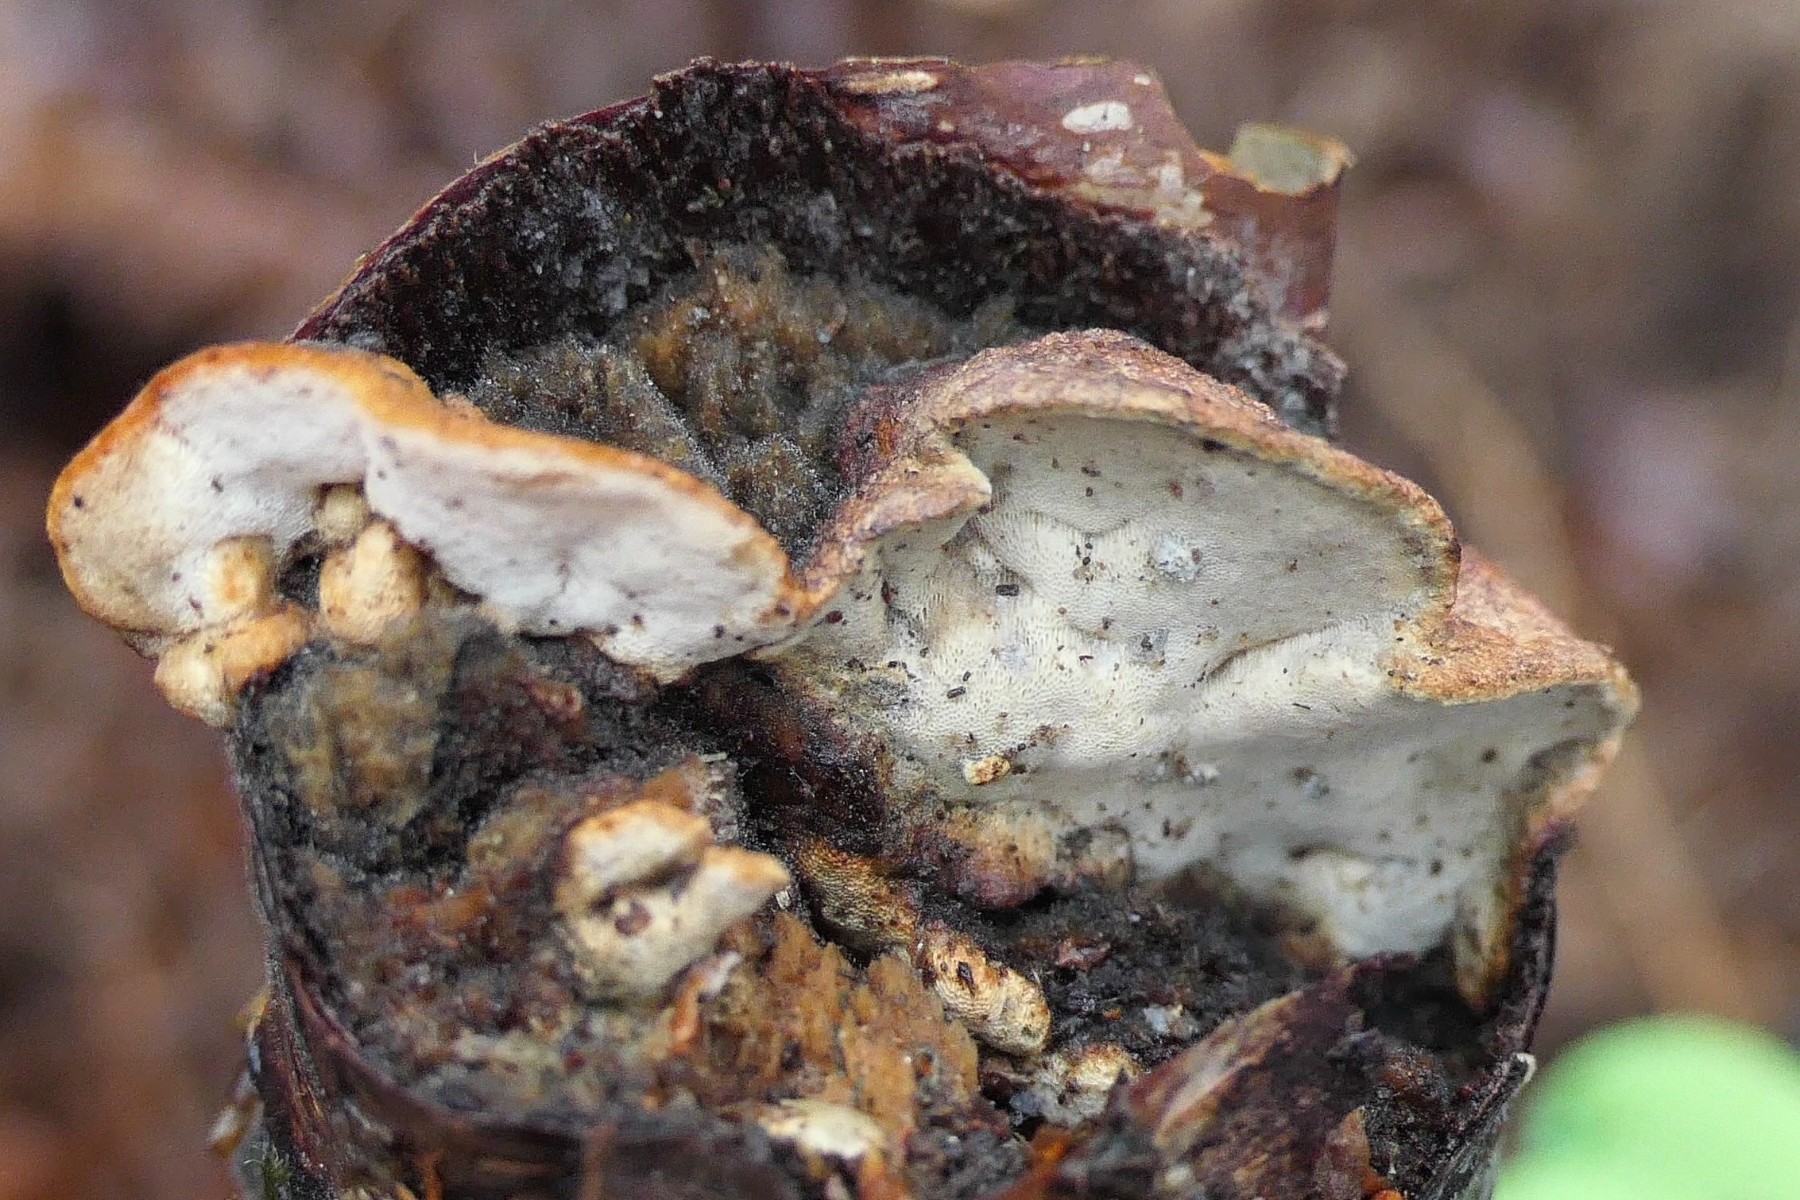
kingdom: Fungi
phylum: Basidiomycota
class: Agaricomycetes
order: Polyporales
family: Incrustoporiaceae
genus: Skeletocutis
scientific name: Skeletocutis nemoralis
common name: stor krystalporesvamp
